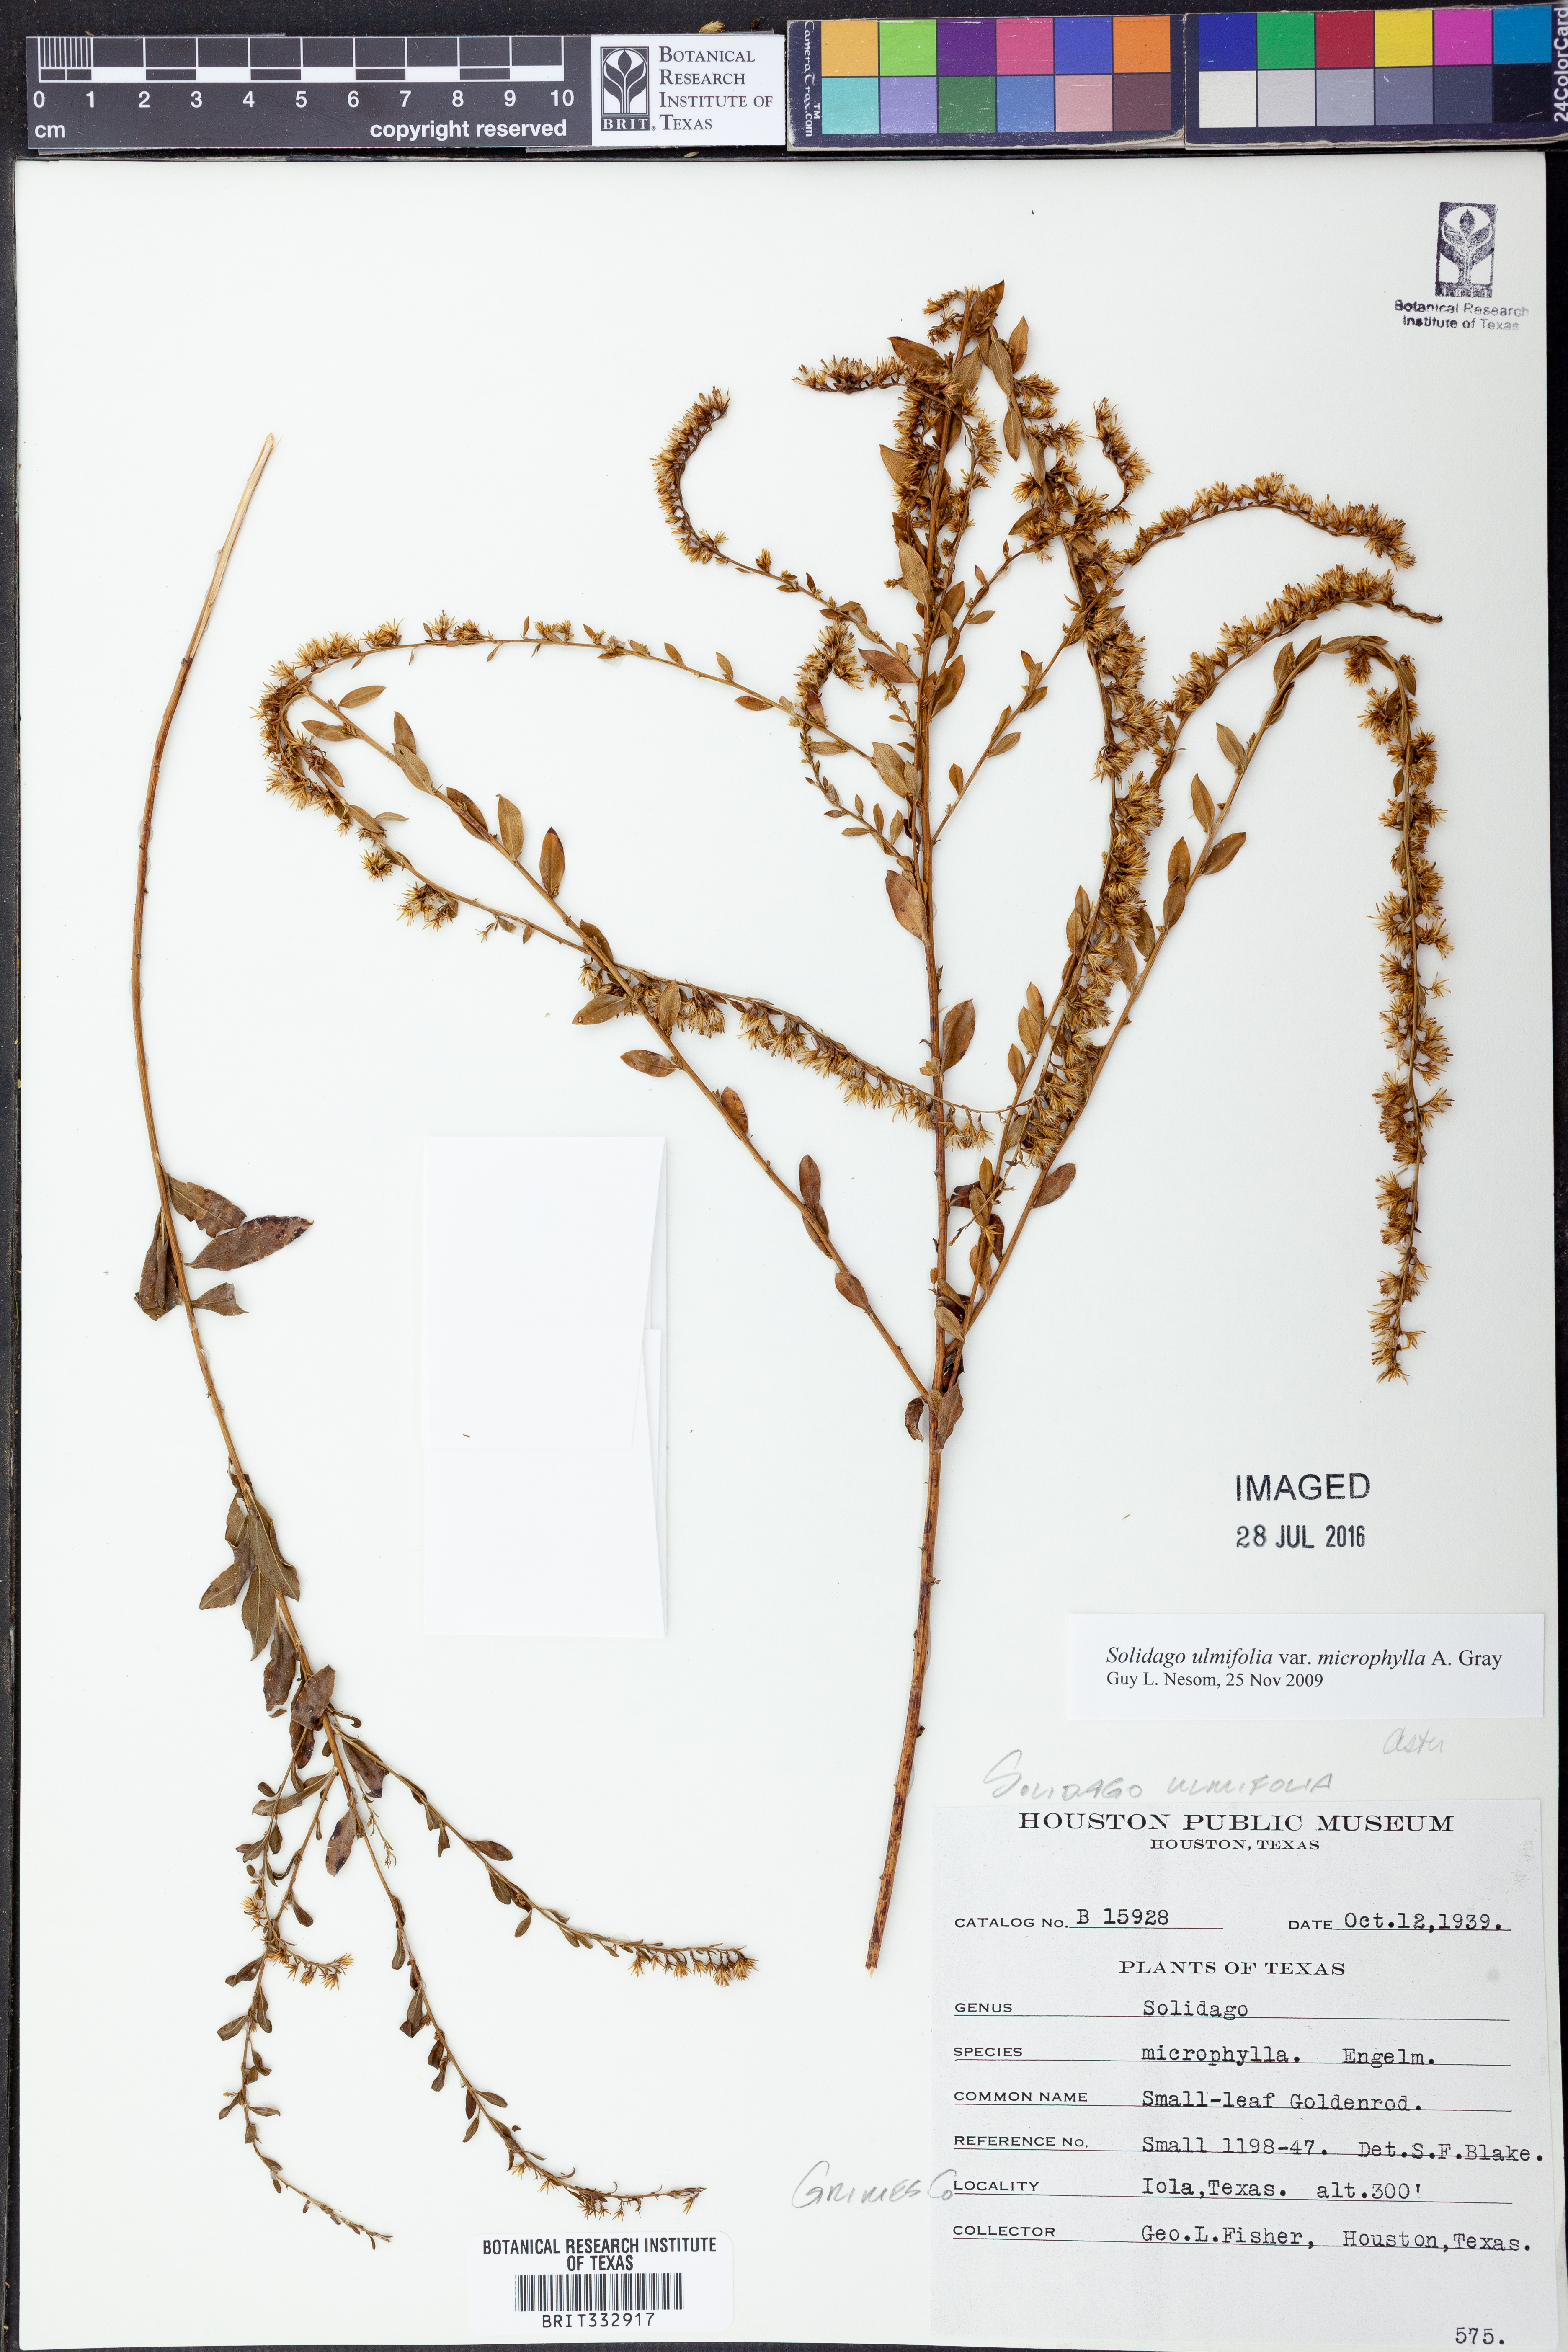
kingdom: Plantae
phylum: Tracheophyta
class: Magnoliopsida
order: Asterales
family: Asteraceae
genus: Solidago
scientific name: Solidago delicatula
